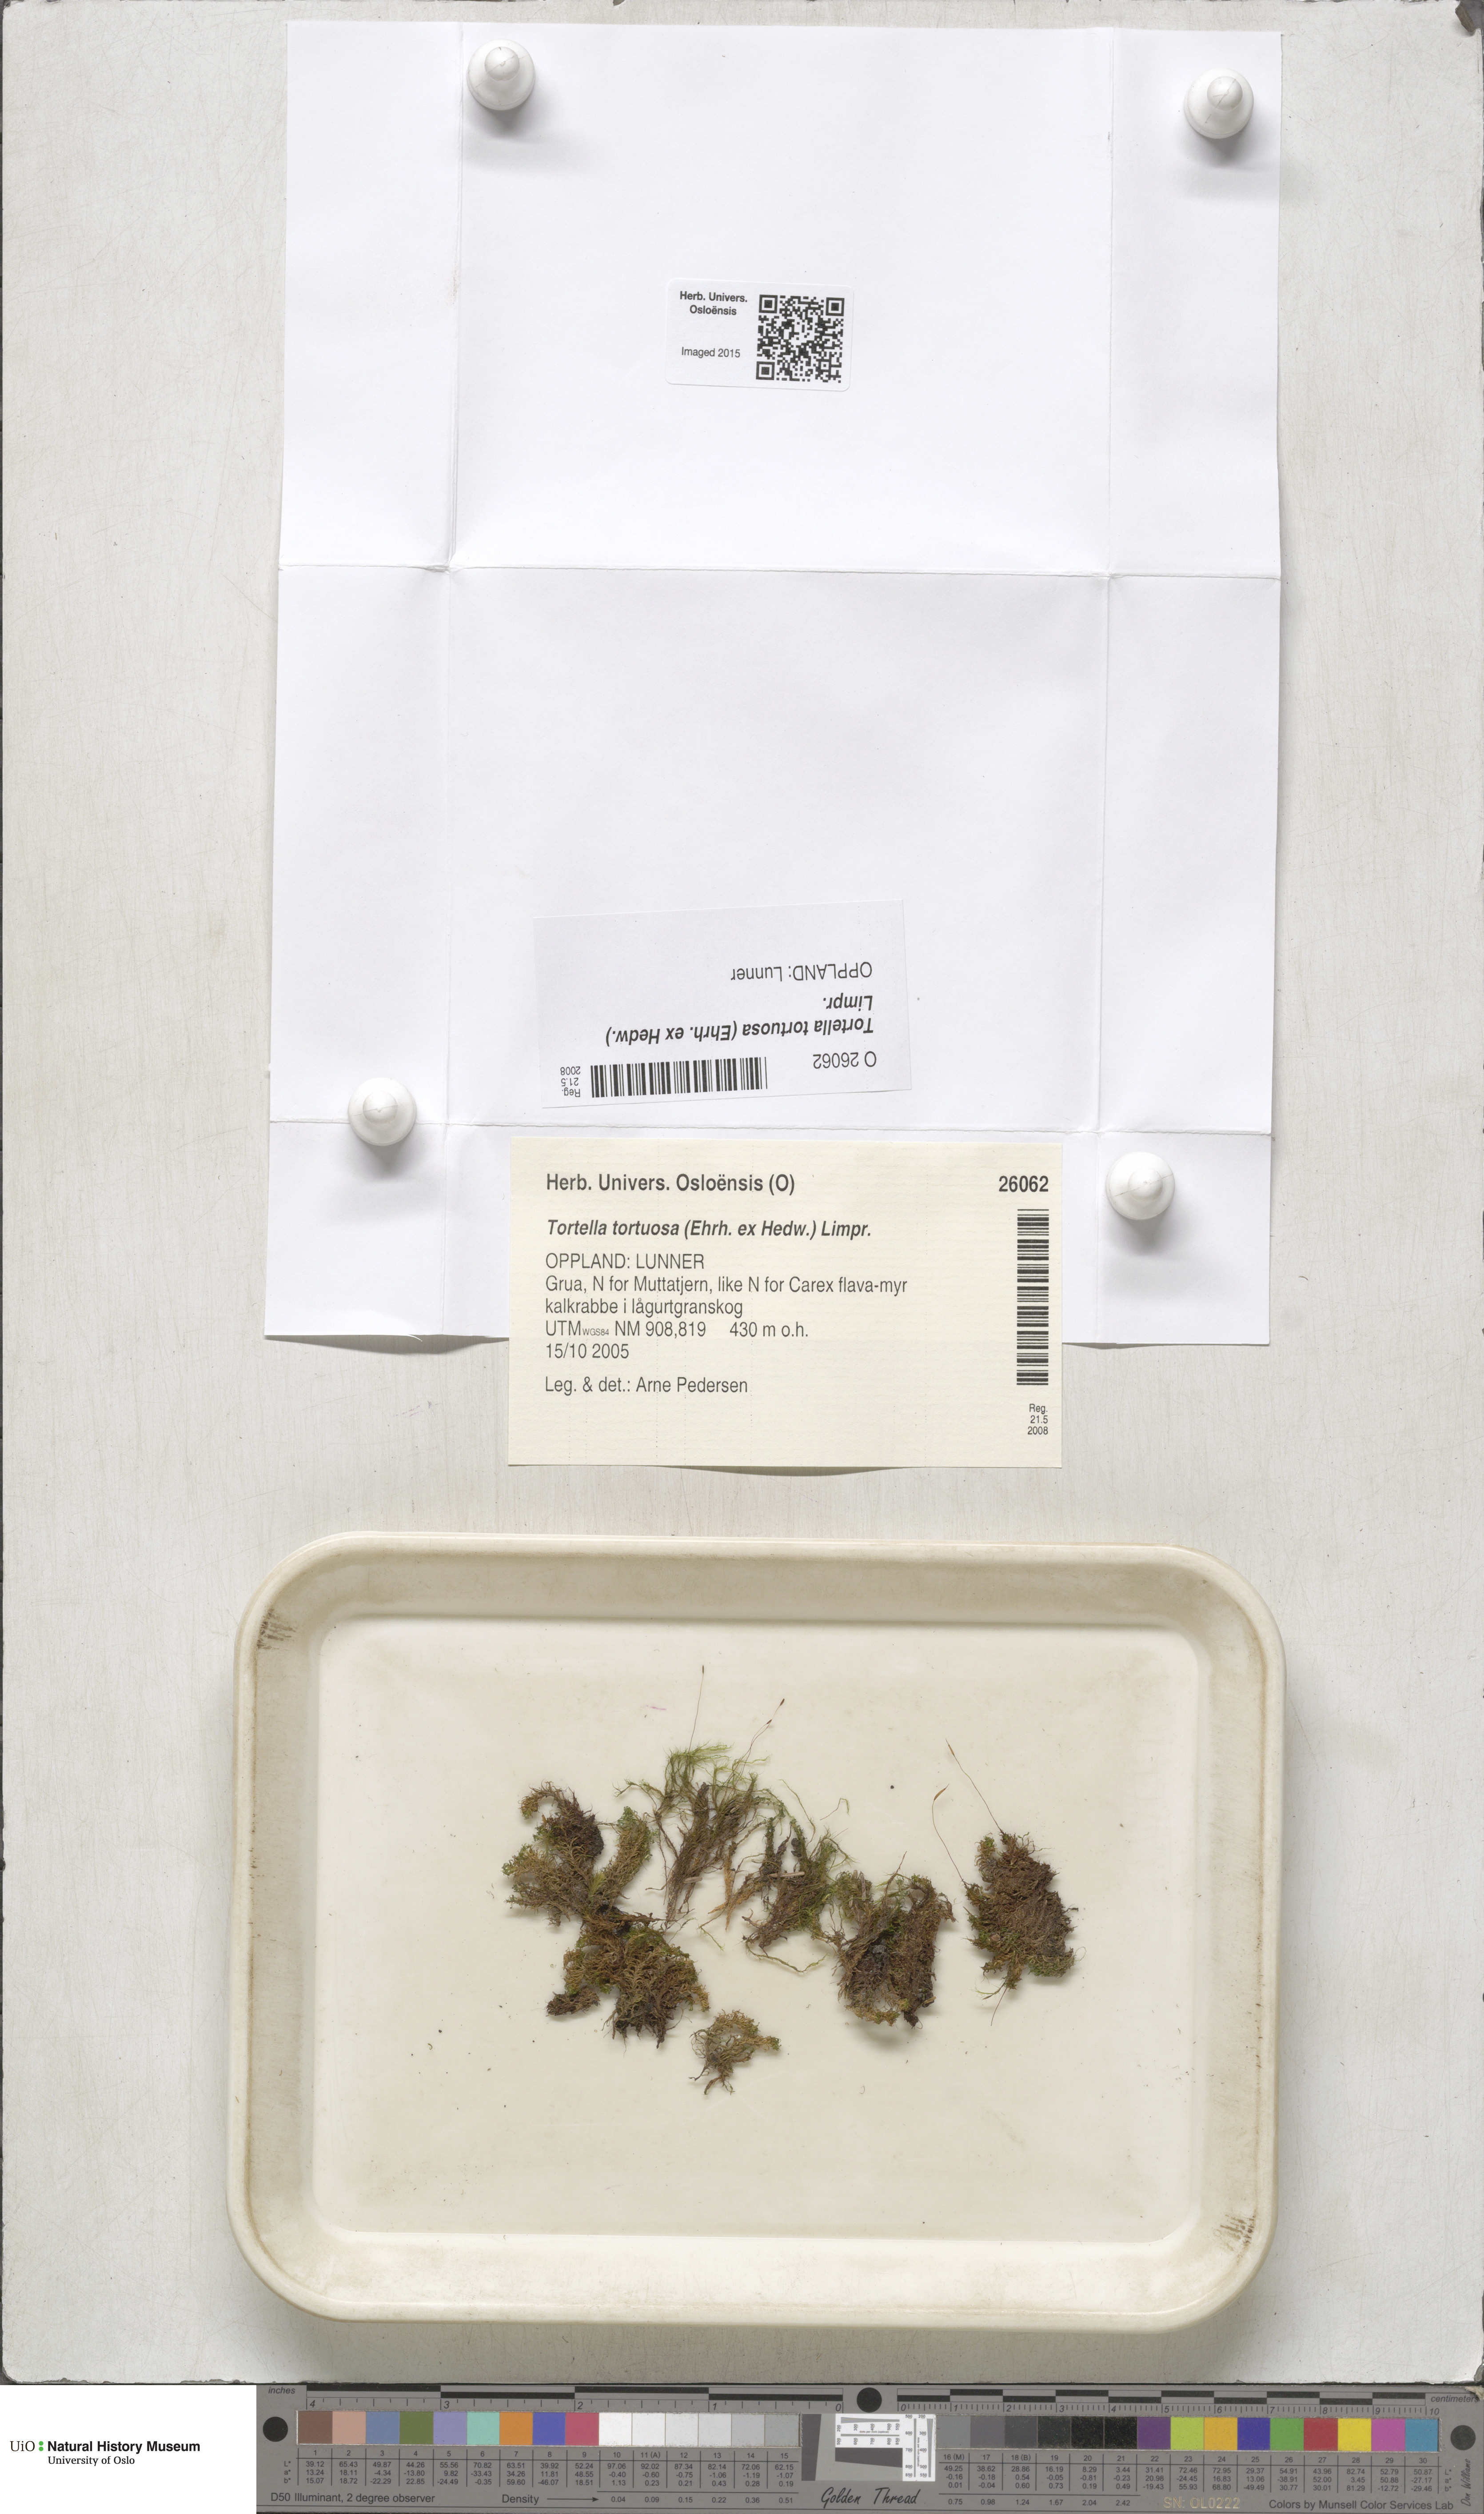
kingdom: Plantae
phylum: Bryophyta
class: Bryopsida
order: Pottiales
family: Pottiaceae
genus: Tortella
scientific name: Tortella tortuosa
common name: Frizzled crisp moss
